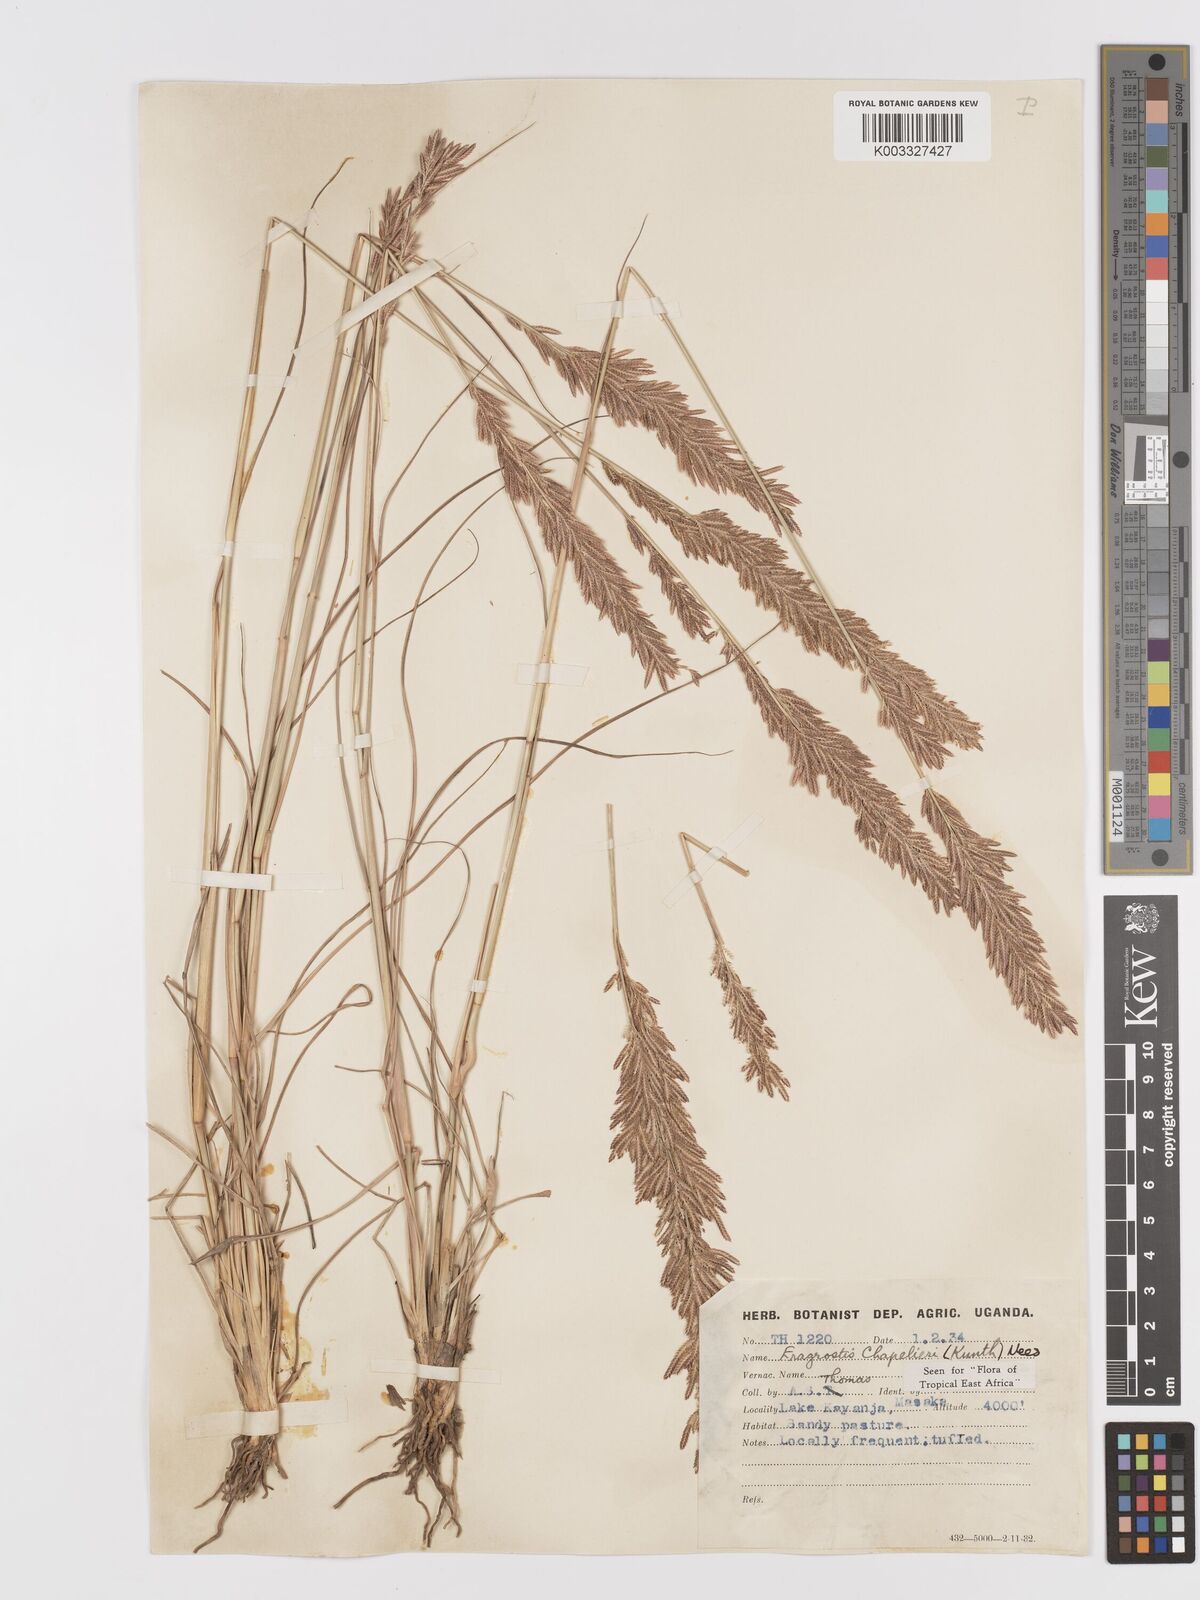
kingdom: Plantae
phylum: Tracheophyta
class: Liliopsida
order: Poales
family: Poaceae
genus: Eragrostis
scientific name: Eragrostis chapelieri
